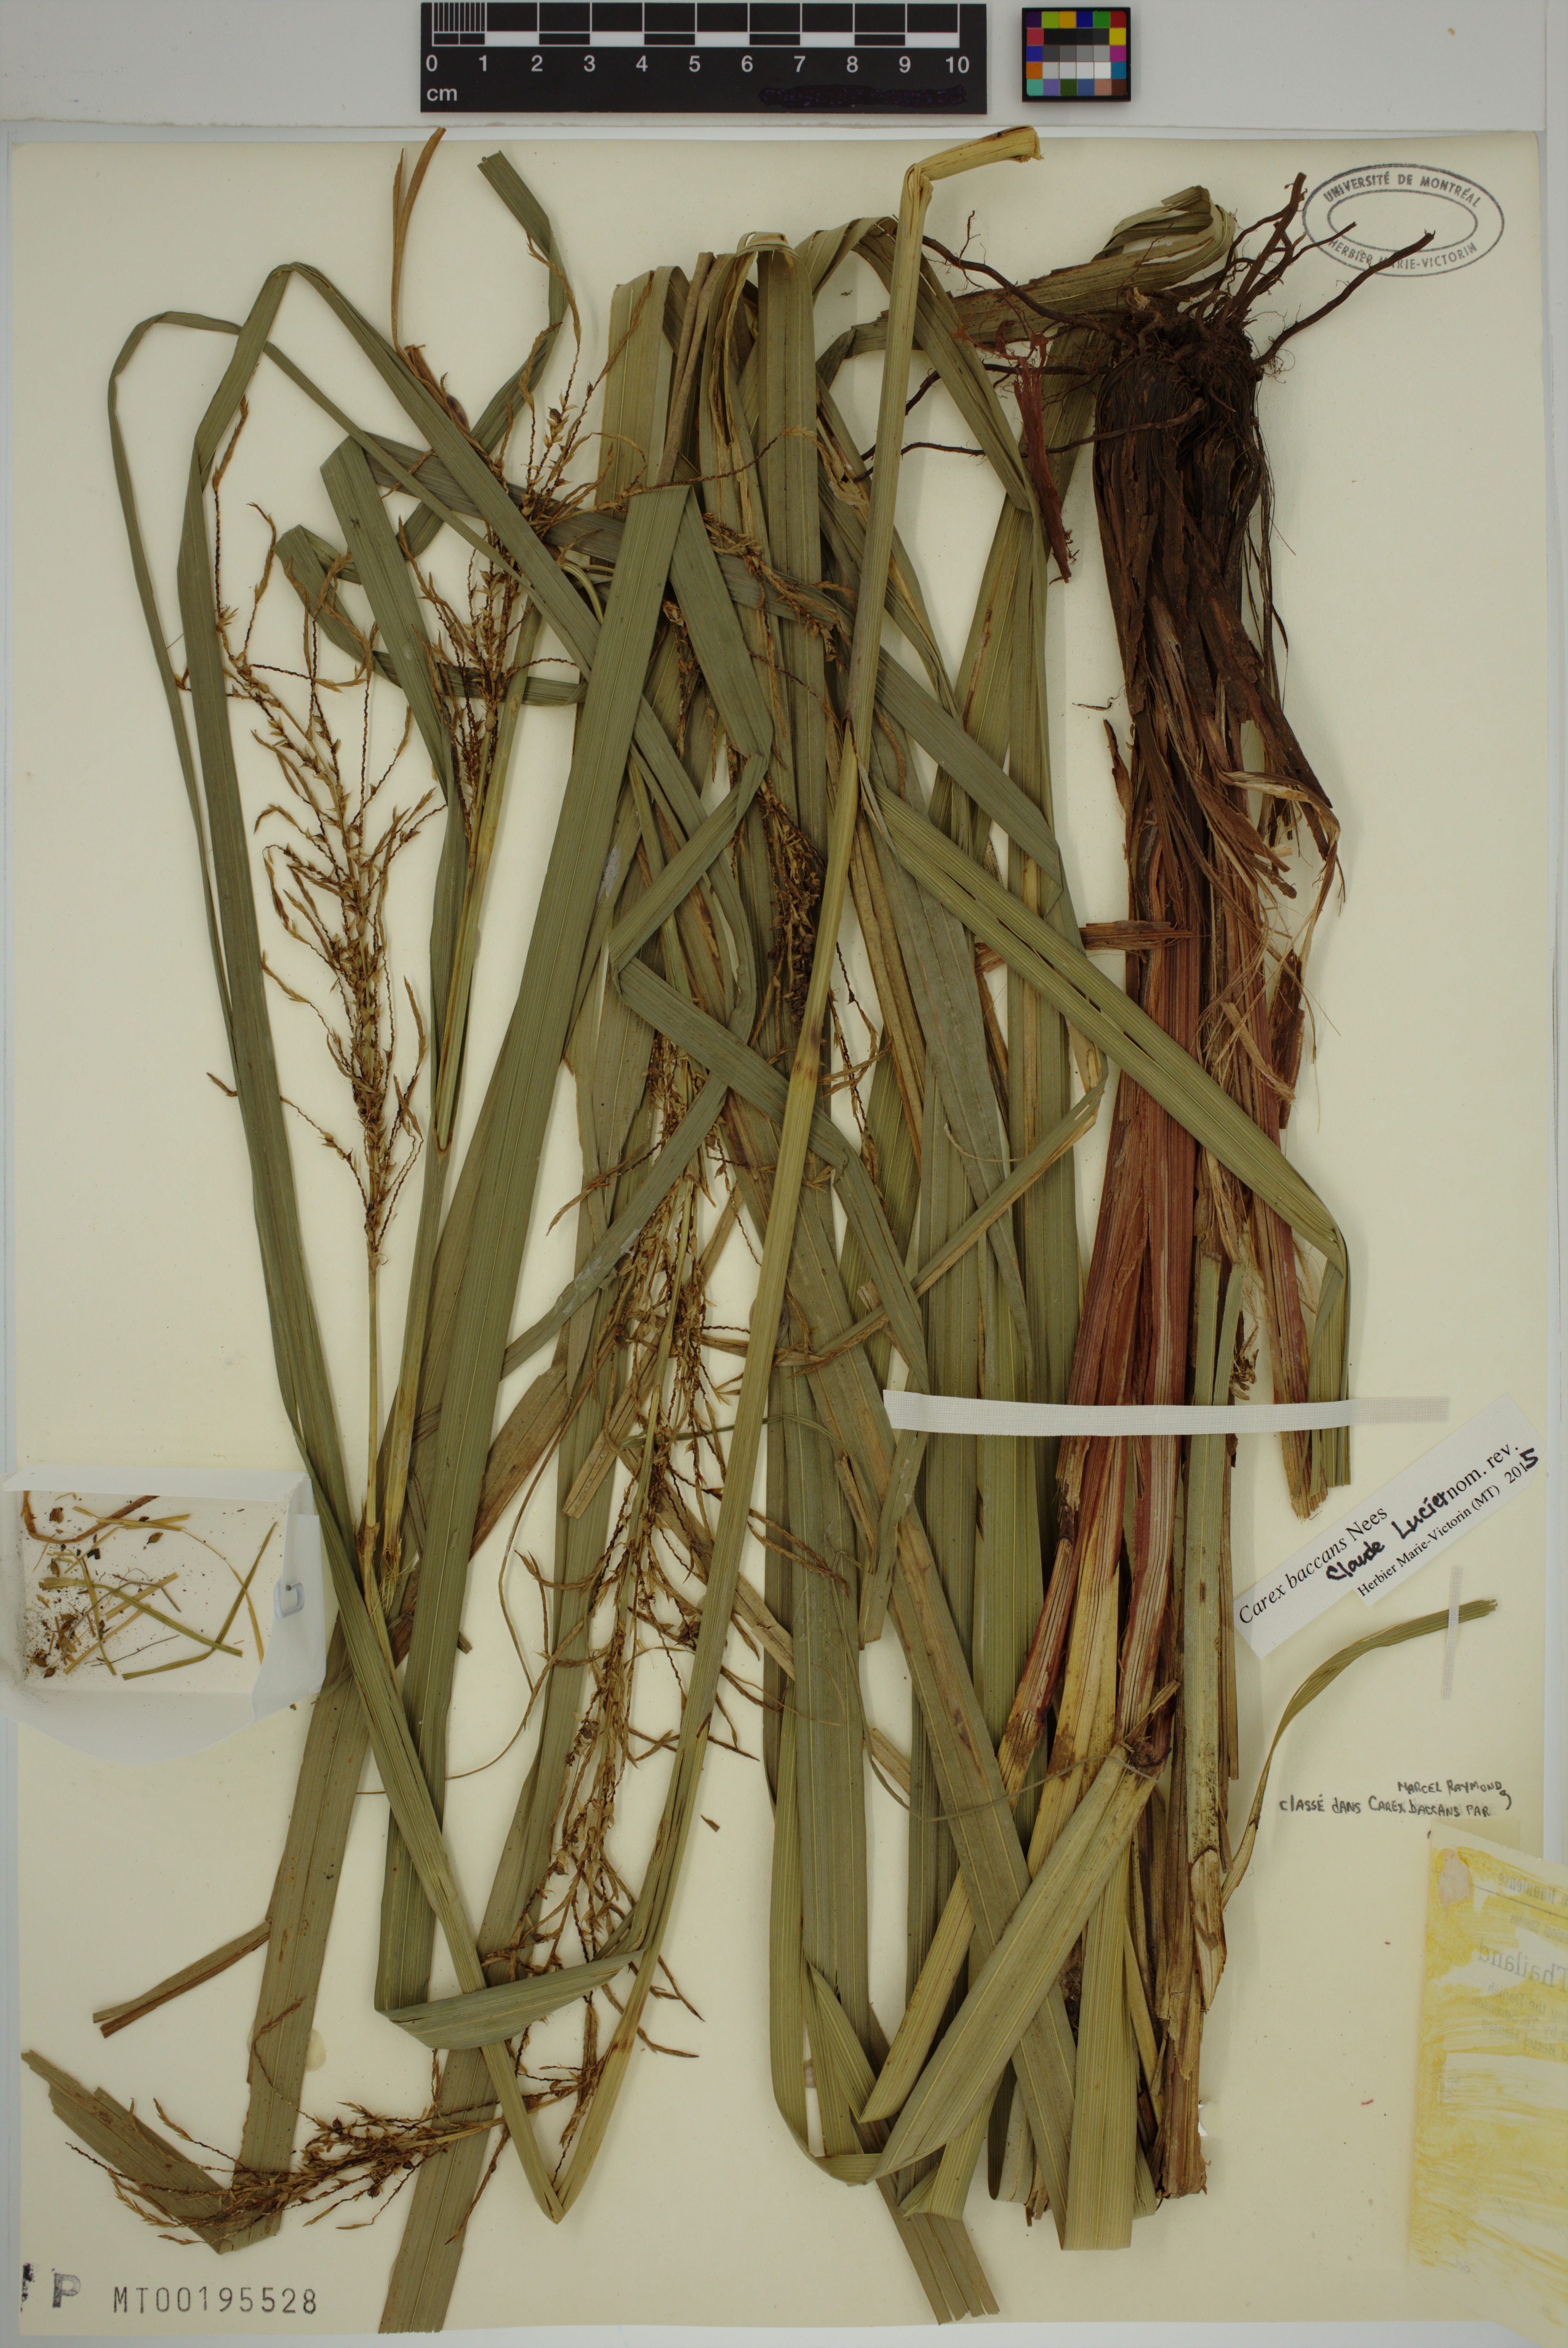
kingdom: Plantae
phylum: Tracheophyta
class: Liliopsida
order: Poales
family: Cyperaceae
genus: Carex
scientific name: Carex baccans
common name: Crimson seeded sedge
